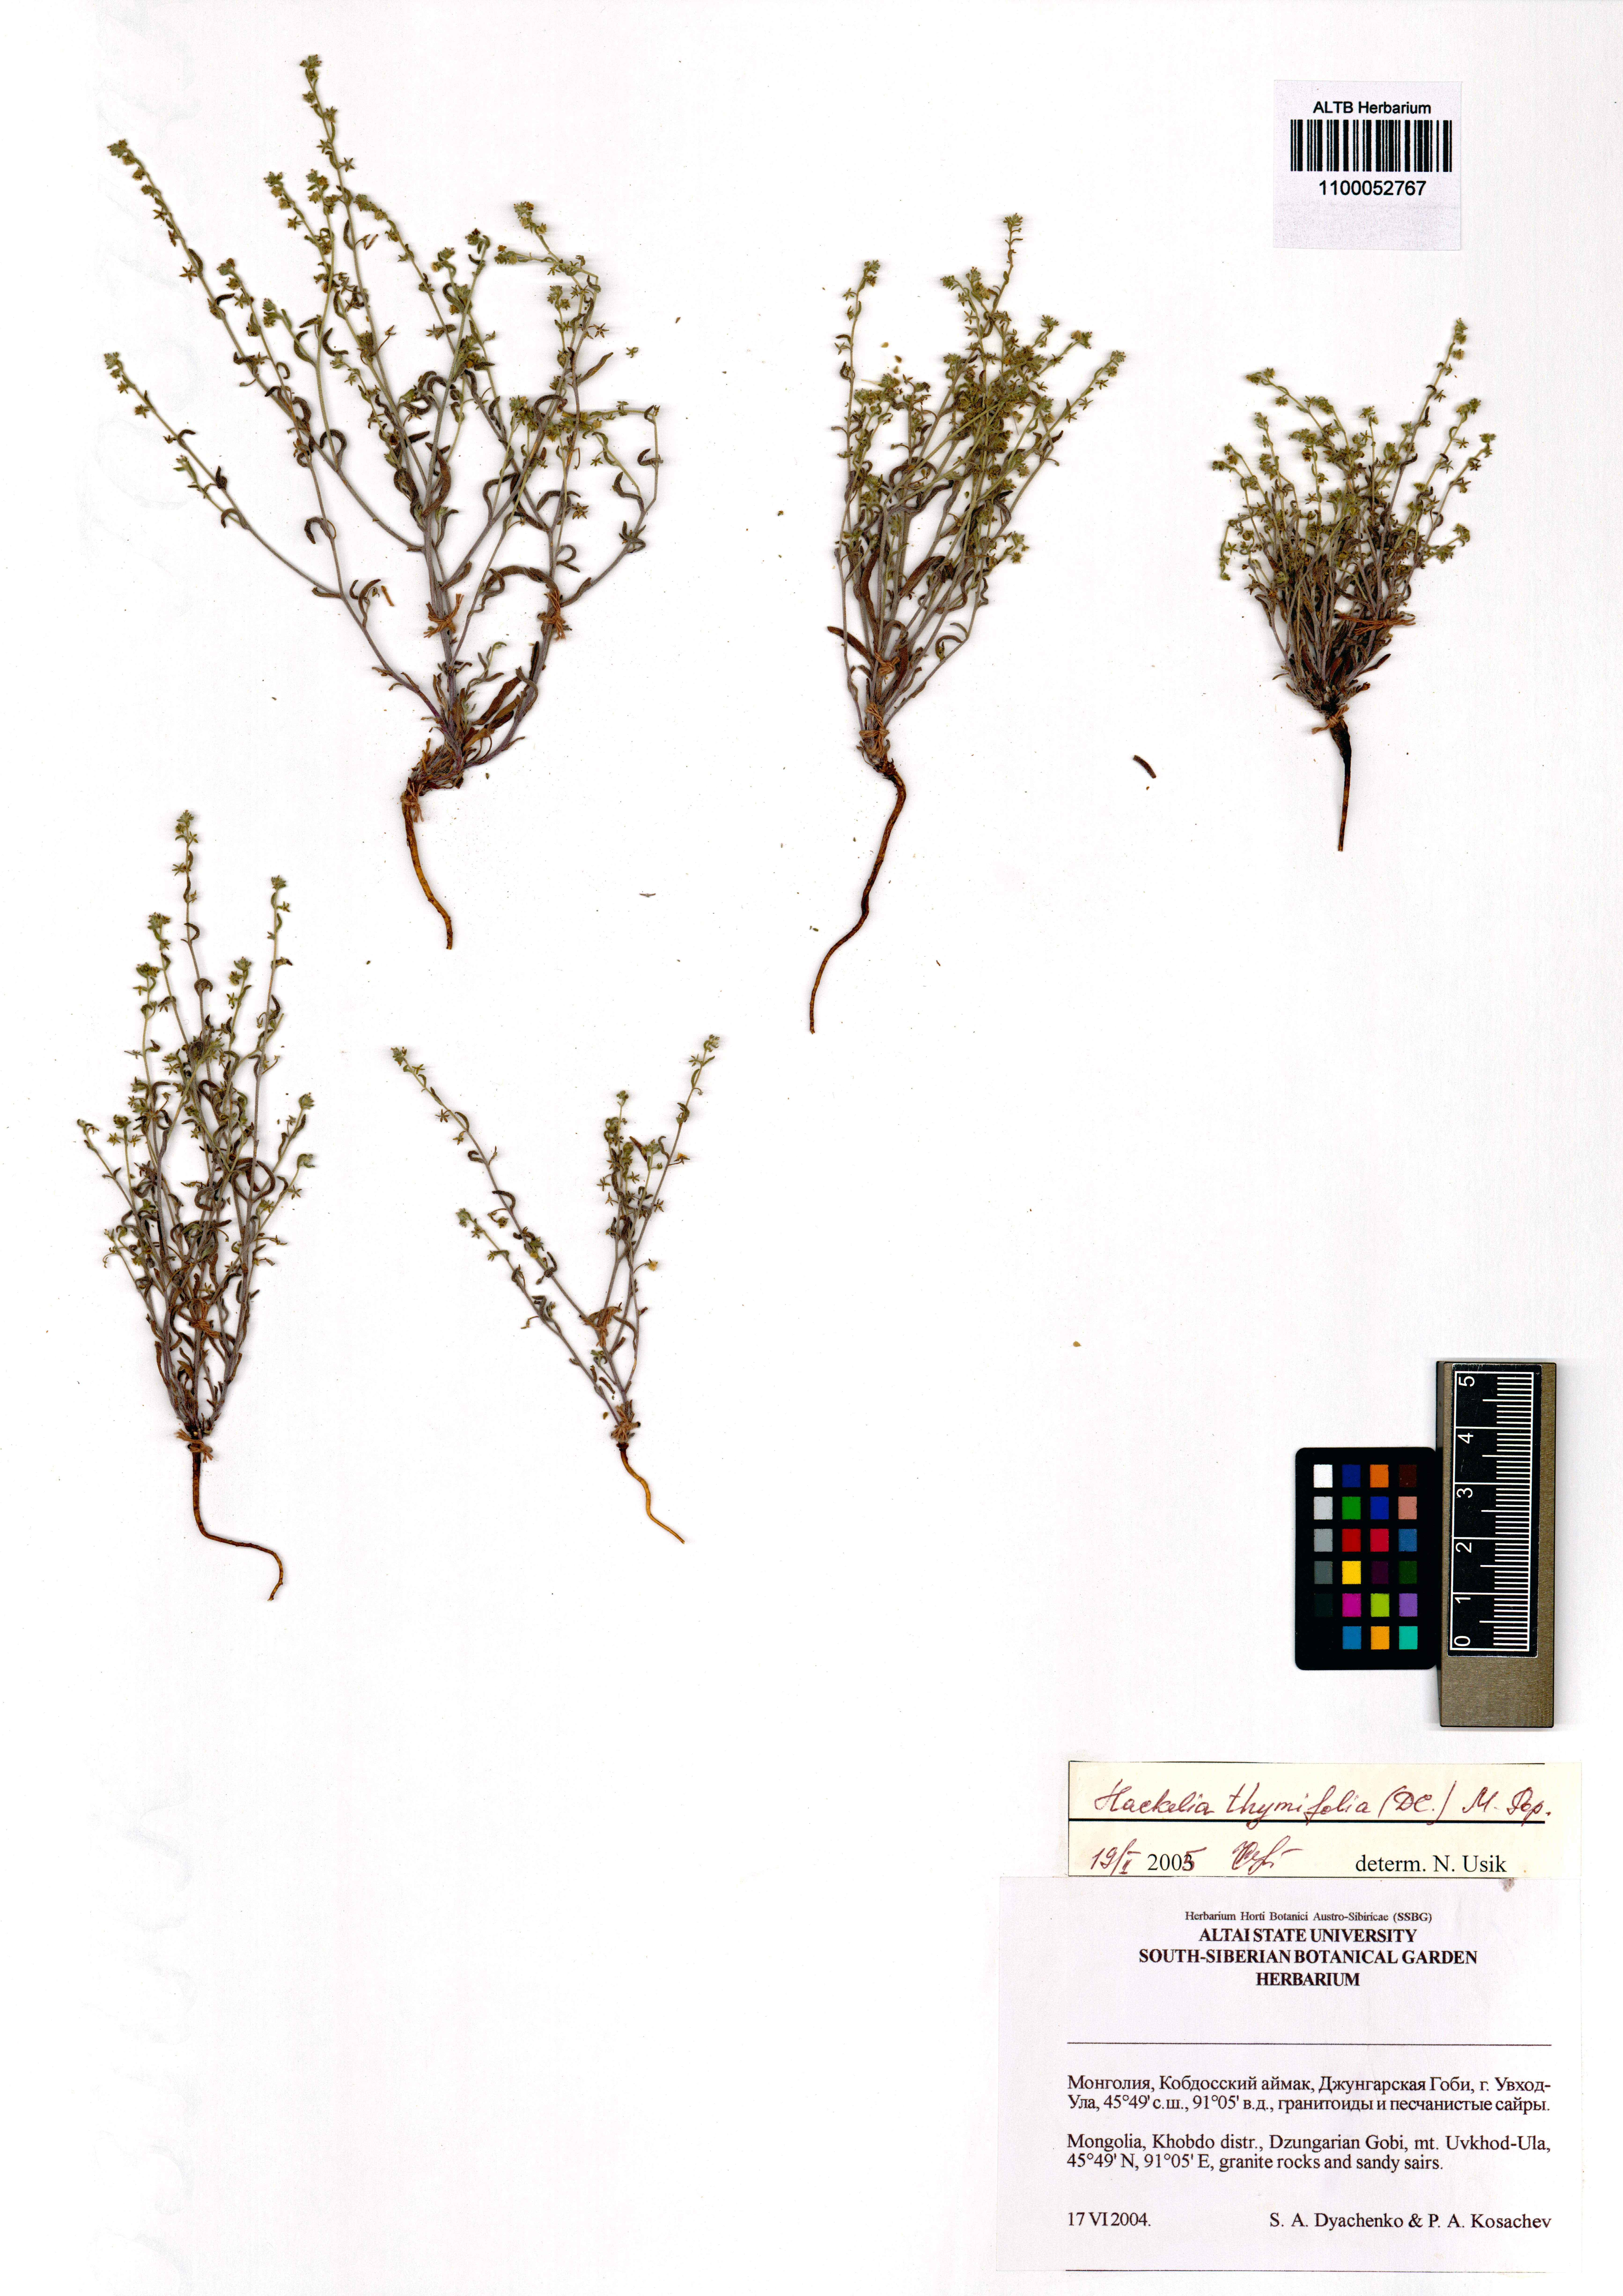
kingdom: Plantae
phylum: Tracheophyta
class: Magnoliopsida
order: Boraginales
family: Boraginaceae
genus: Eritrichium
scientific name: Eritrichium thymifolium
